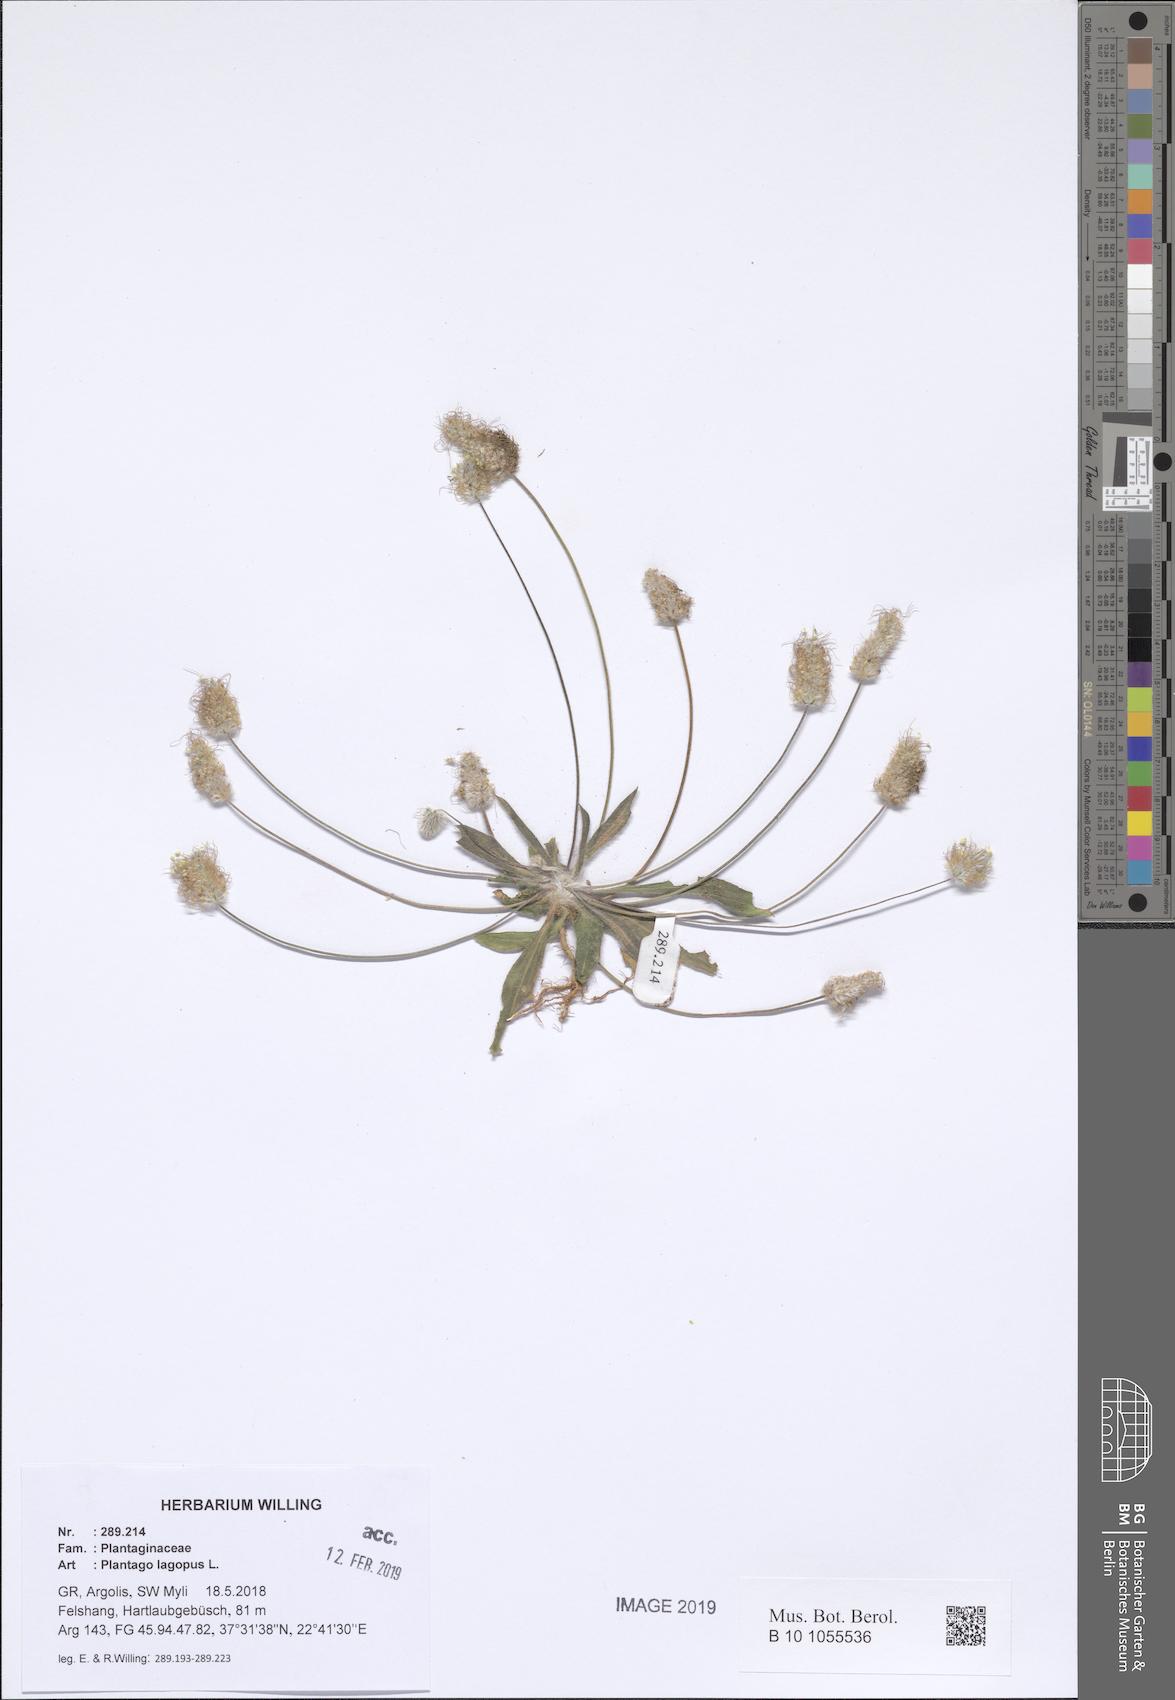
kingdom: Plantae
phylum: Tracheophyta
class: Magnoliopsida
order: Lamiales
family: Plantaginaceae
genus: Plantago
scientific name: Plantago lagopus
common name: Hare-foot plantain
